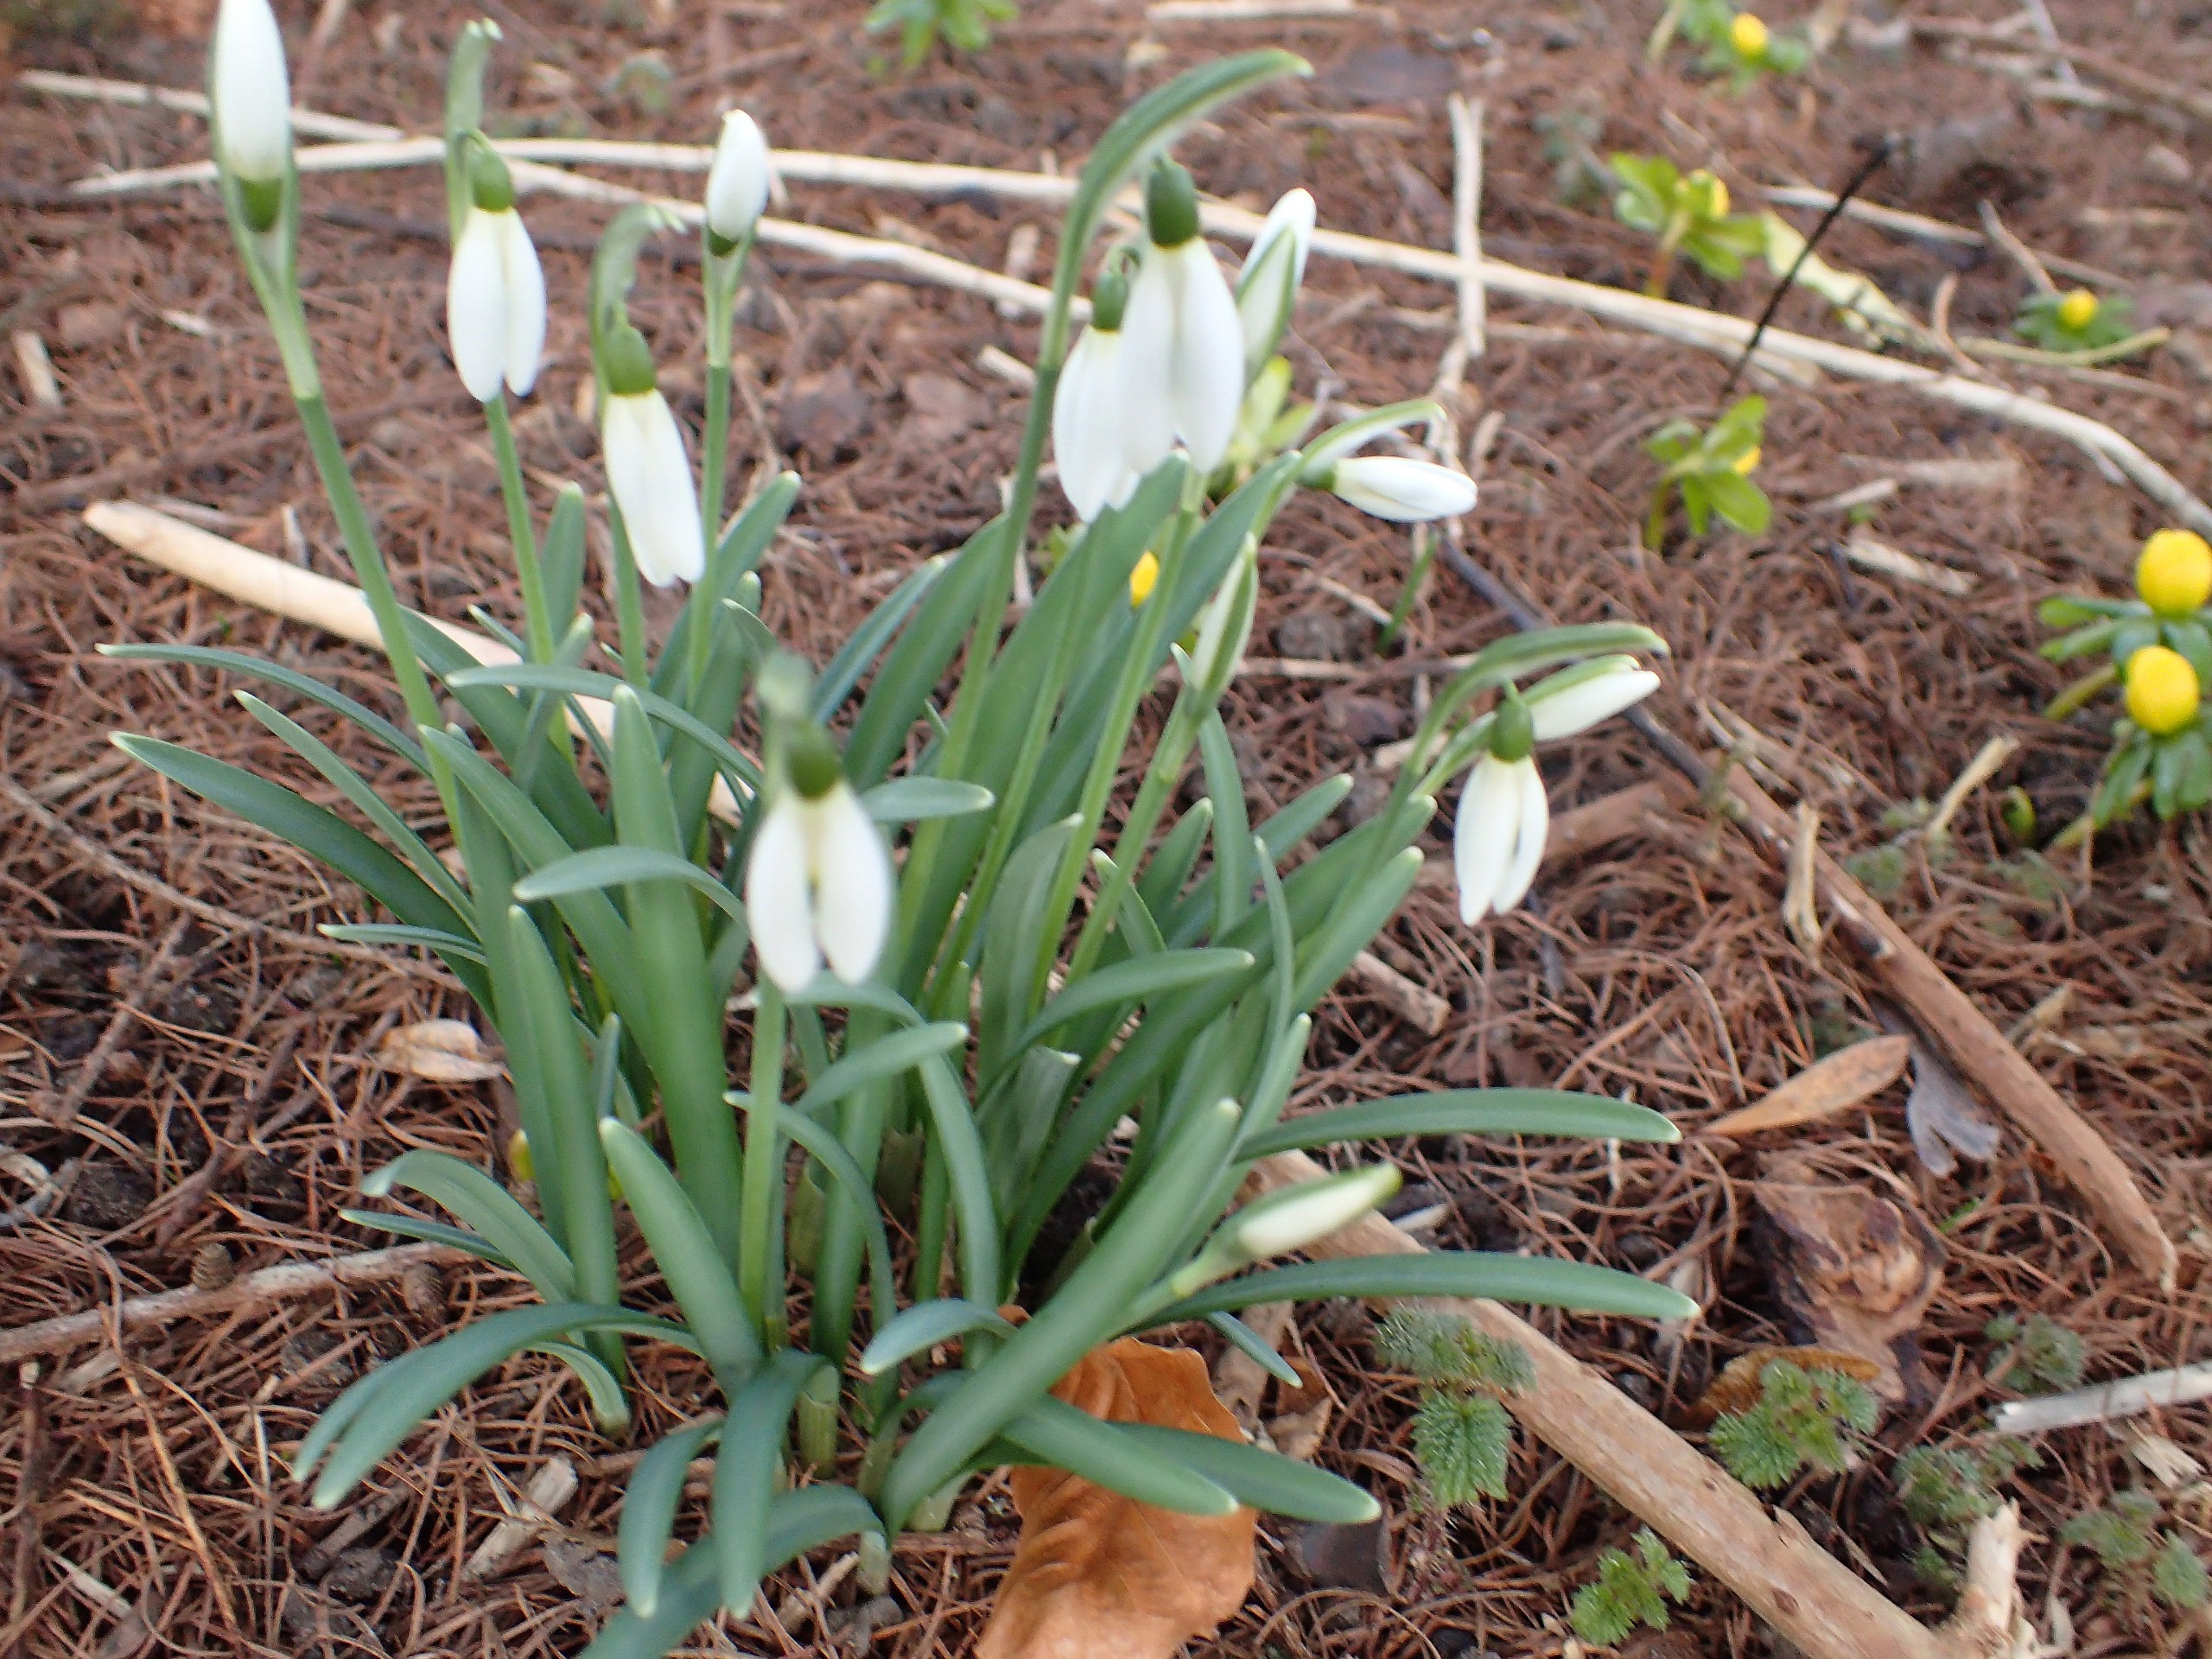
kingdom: Plantae
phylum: Tracheophyta
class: Liliopsida
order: Asparagales
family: Amaryllidaceae
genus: Galanthus
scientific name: Galanthus nivalis
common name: Vintergæk
